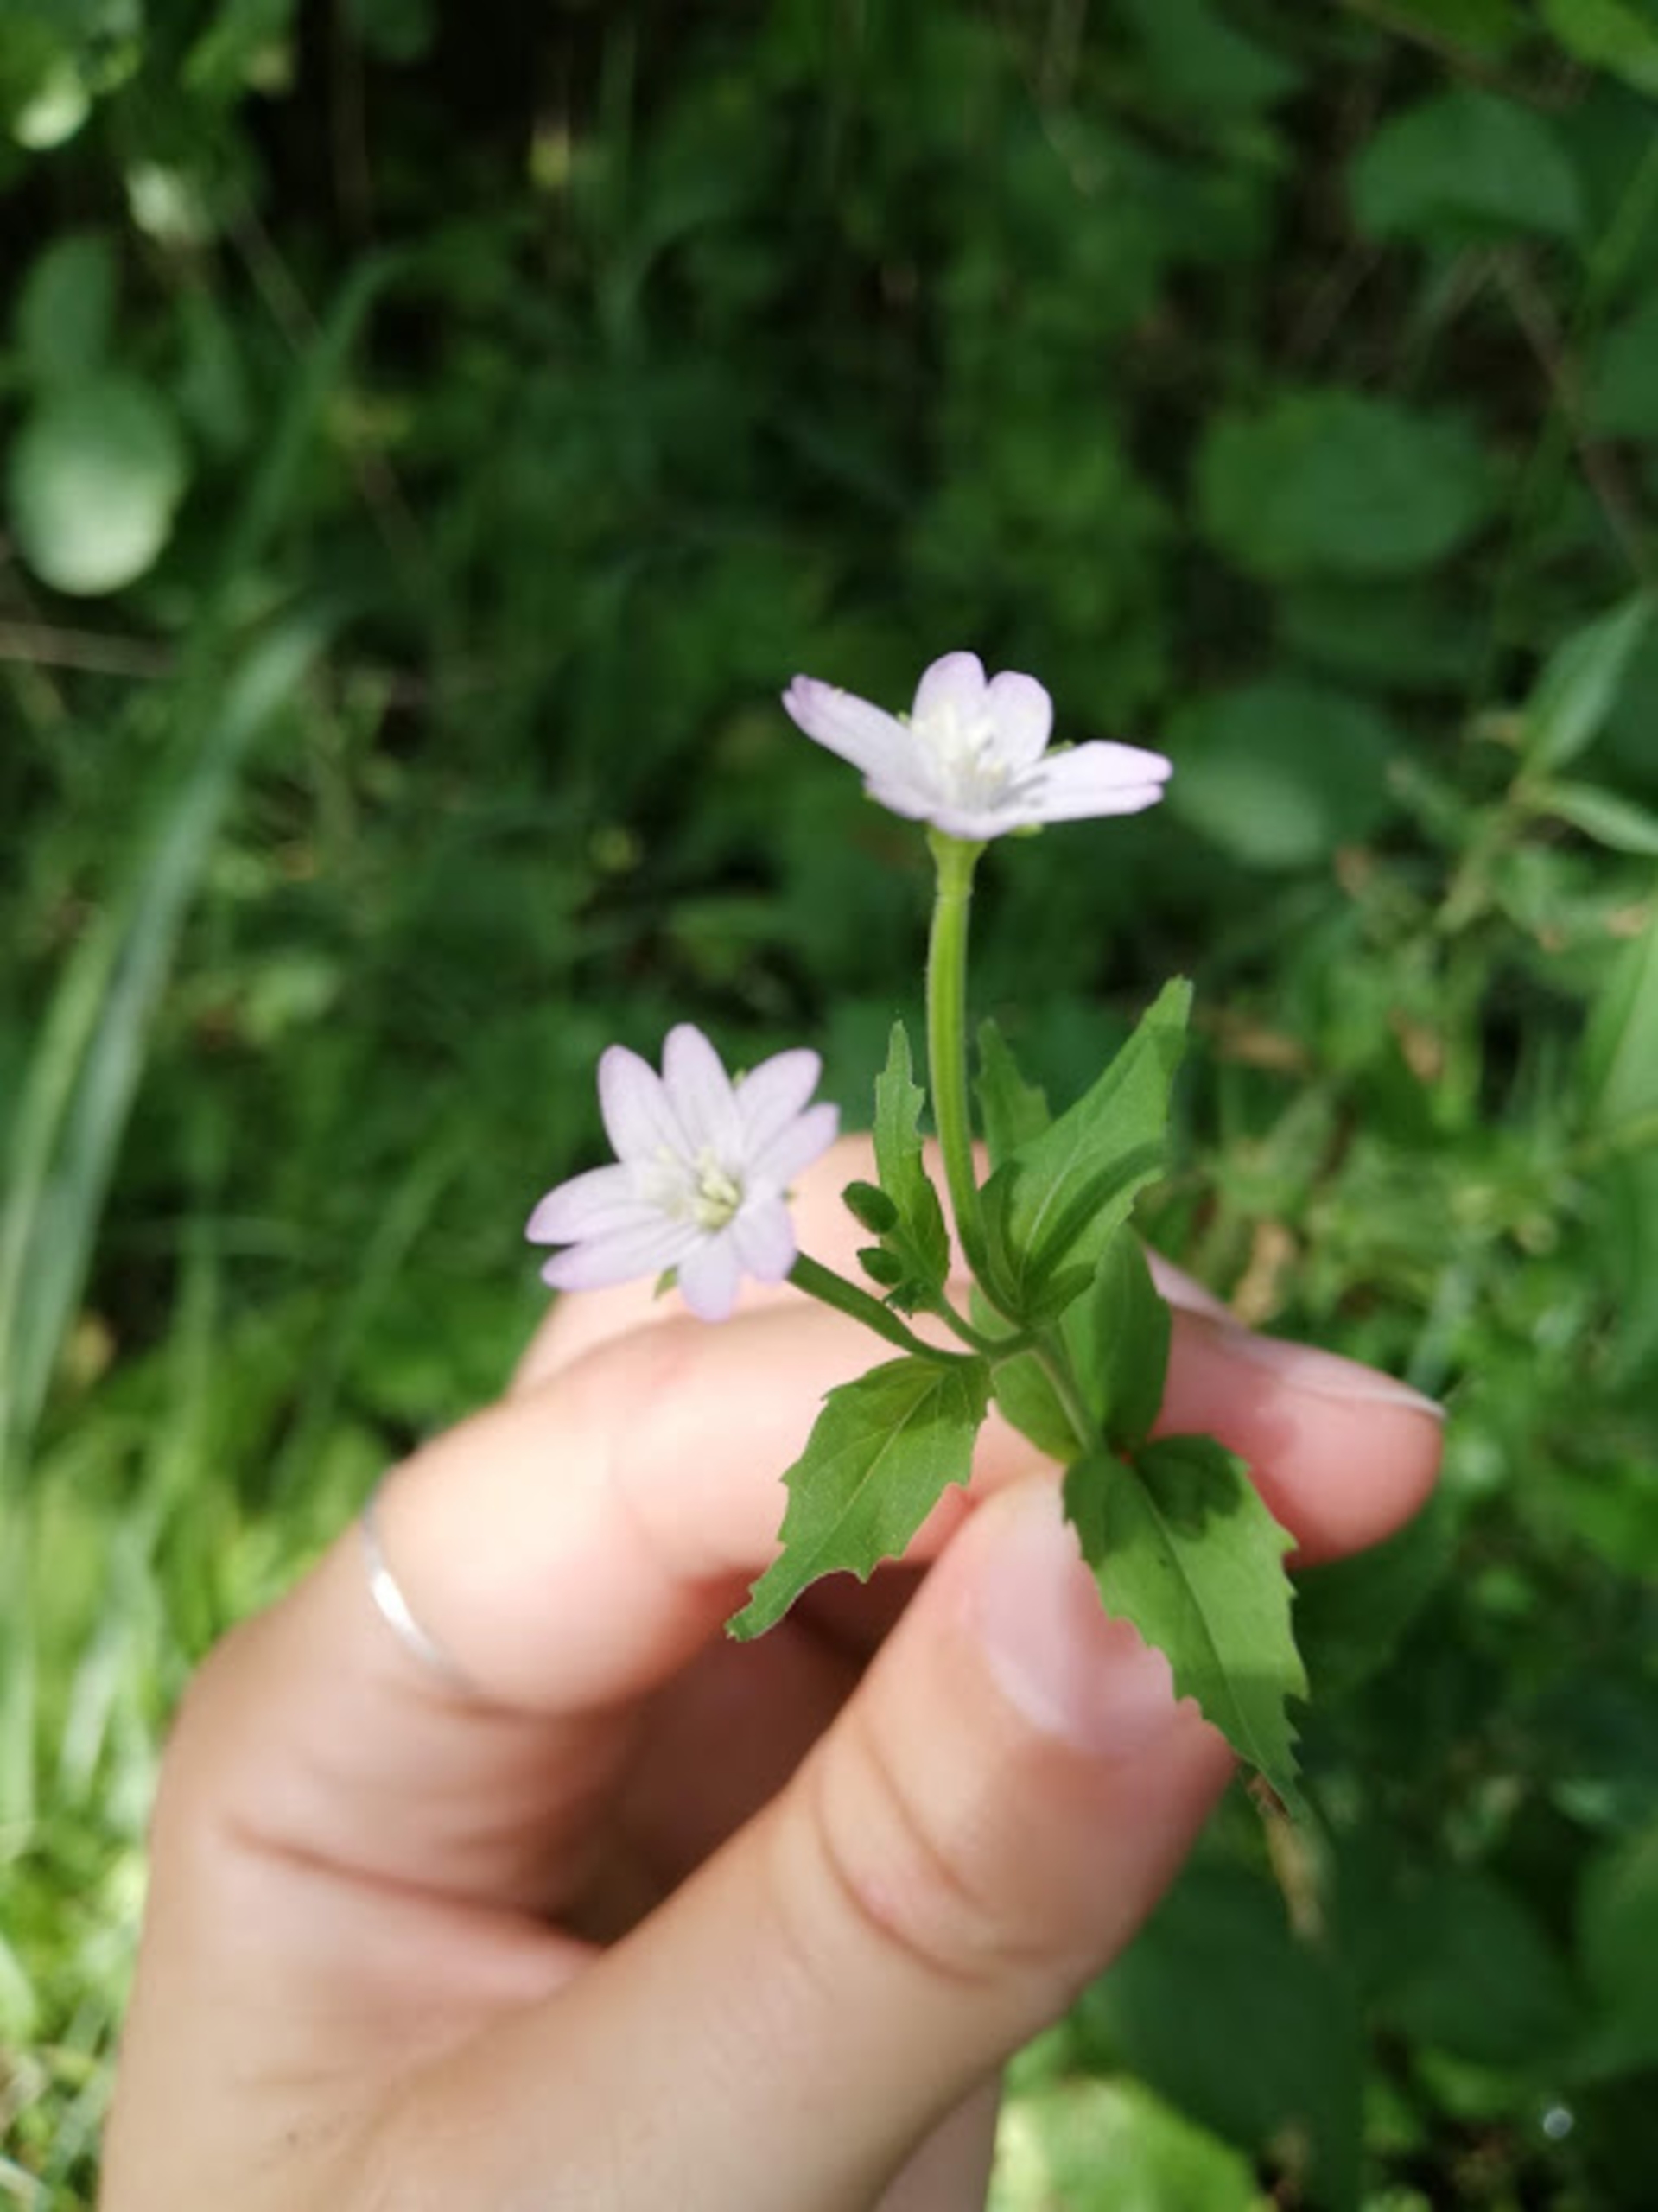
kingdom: Plantae
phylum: Tracheophyta
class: Magnoliopsida
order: Myrtales
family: Onagraceae
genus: Epilobium
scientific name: Epilobium montanum
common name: Glat dueurt
